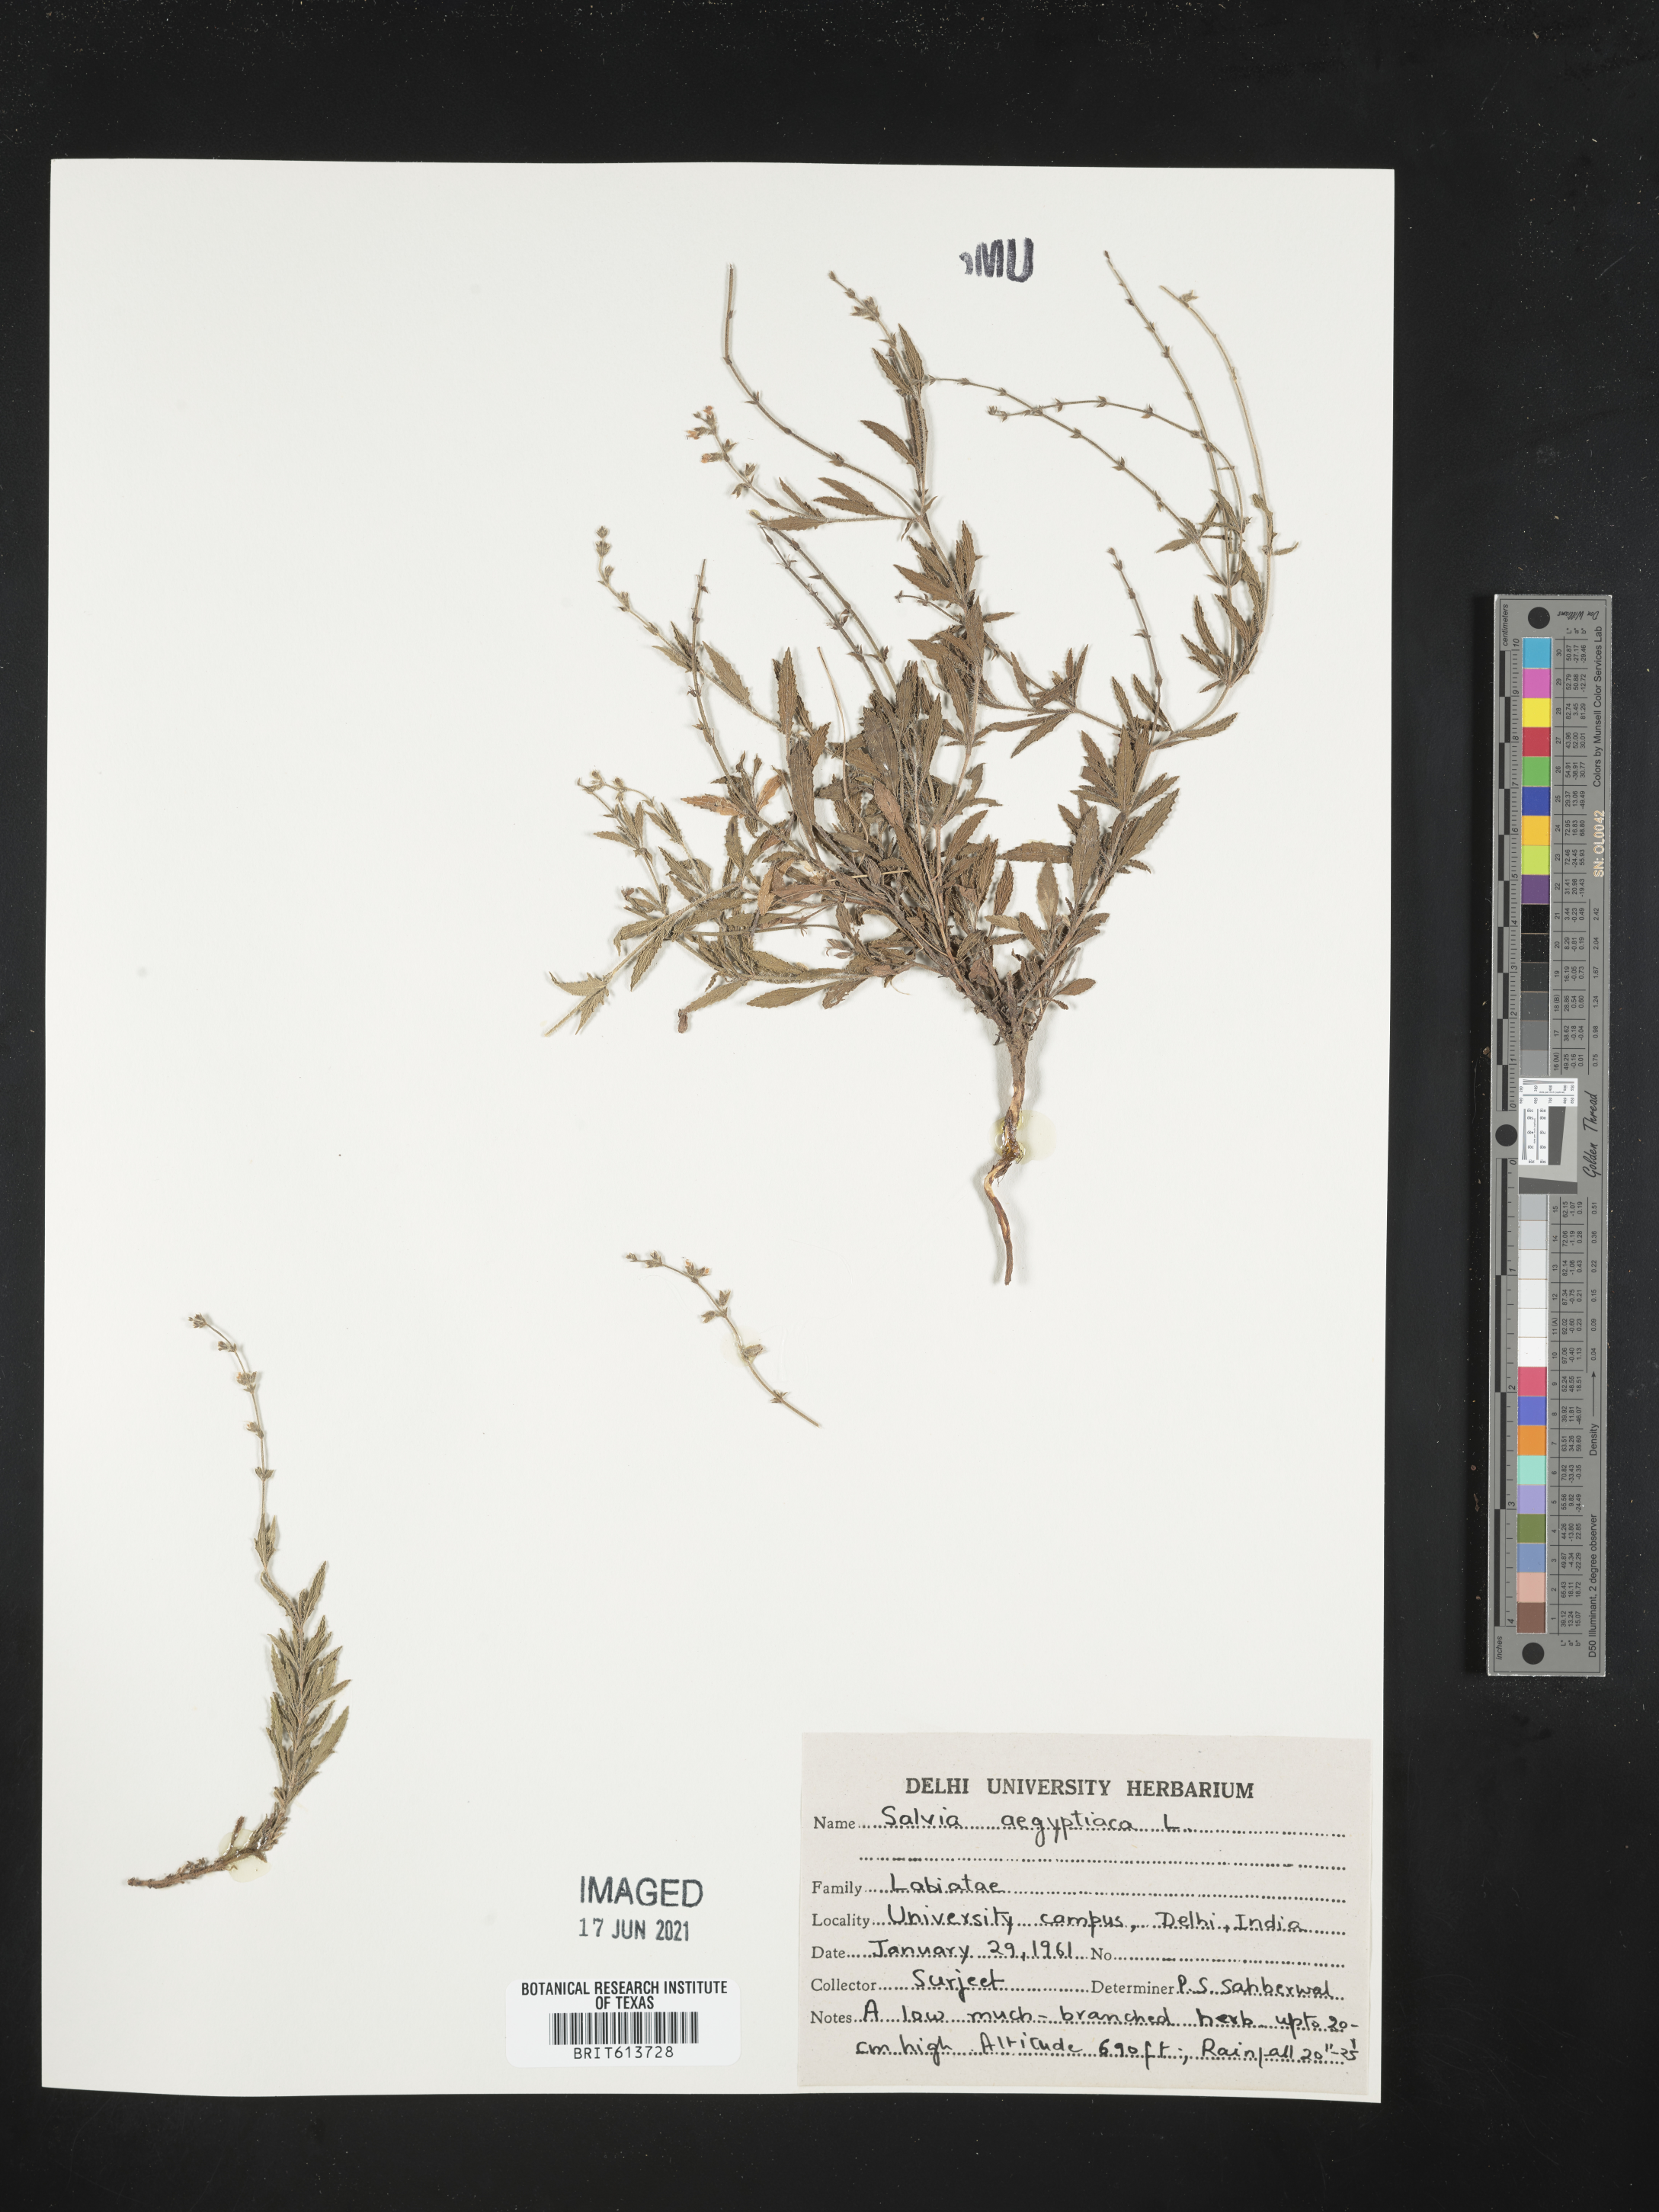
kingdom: Plantae
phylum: Tracheophyta
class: Magnoliopsida
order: Lamiales
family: Lamiaceae
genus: Salvia
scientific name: Salvia aegyptiaca
